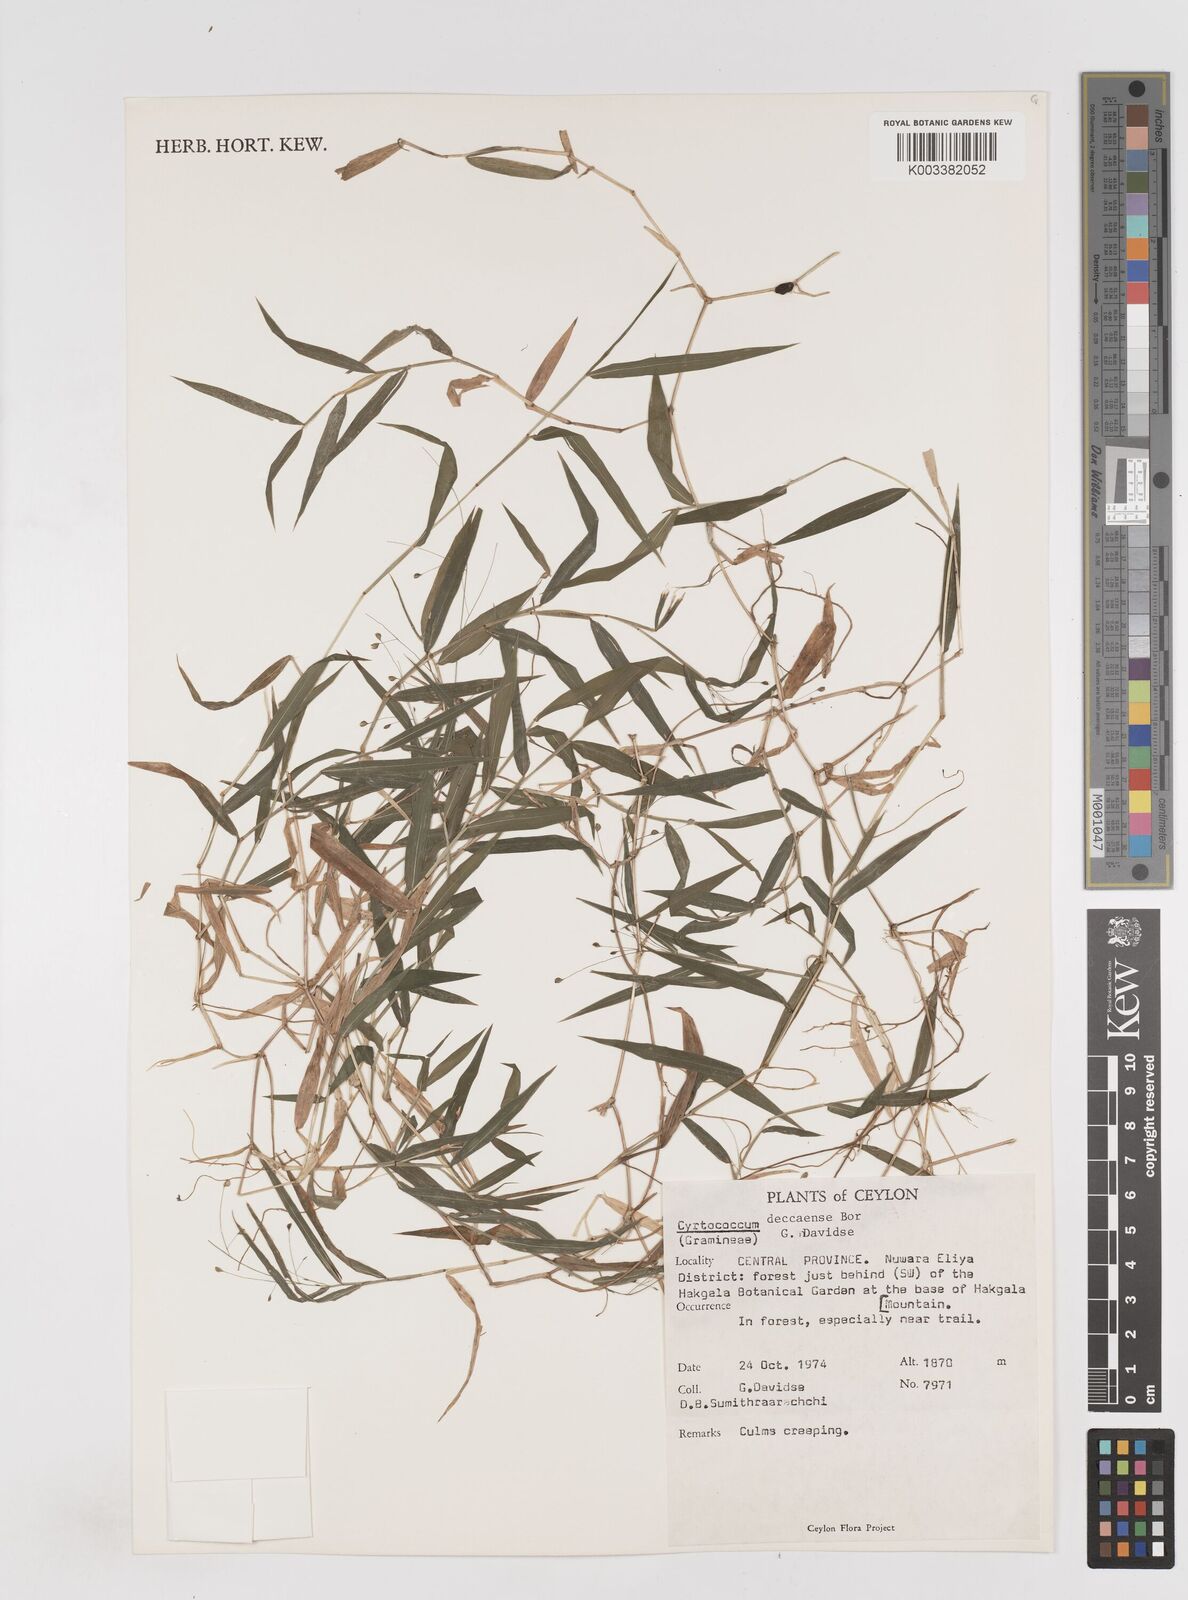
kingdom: Plantae
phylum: Tracheophyta
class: Liliopsida
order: Poales
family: Poaceae
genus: Cyrtococcum
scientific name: Cyrtococcum deccanense
